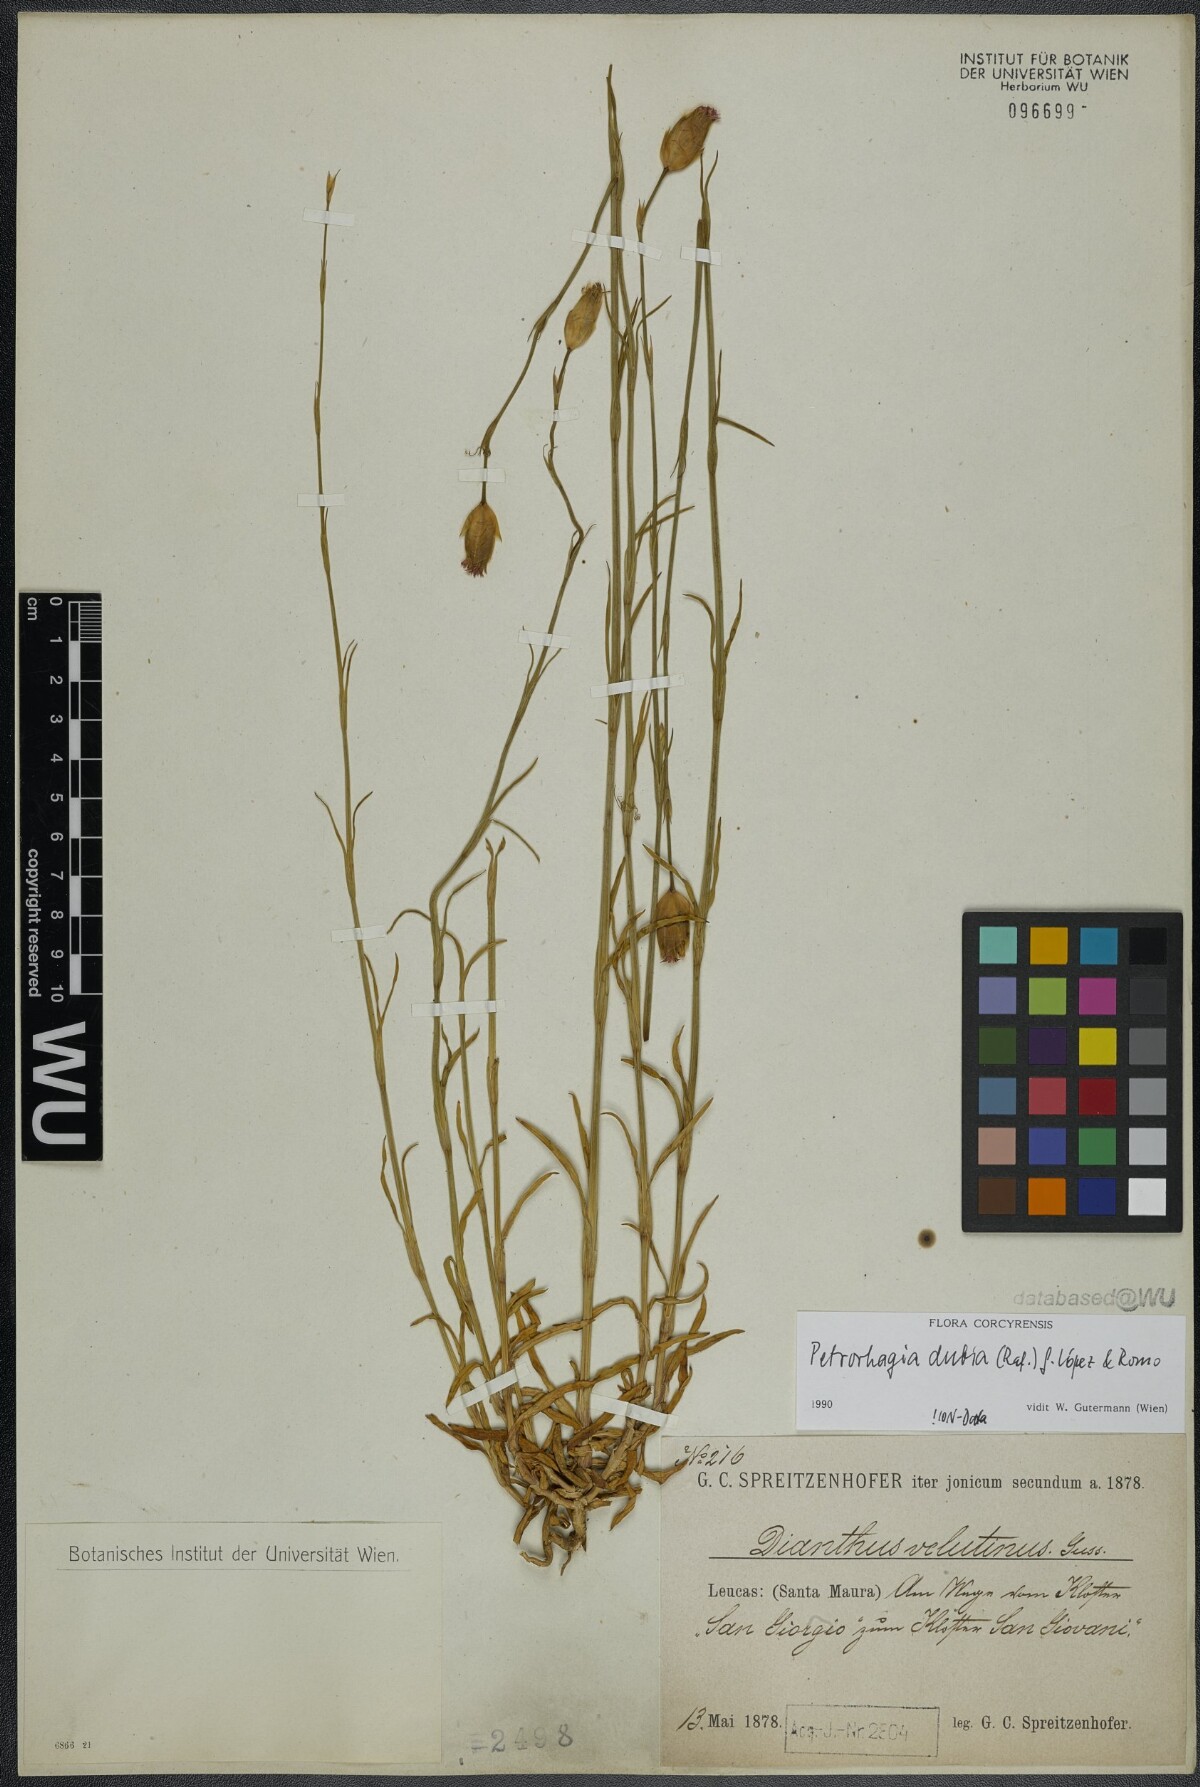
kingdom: Plantae
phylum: Tracheophyta
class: Magnoliopsida
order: Caryophyllales
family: Caryophyllaceae
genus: Petrorhagia
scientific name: Petrorhagia dubia
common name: Hairypink
